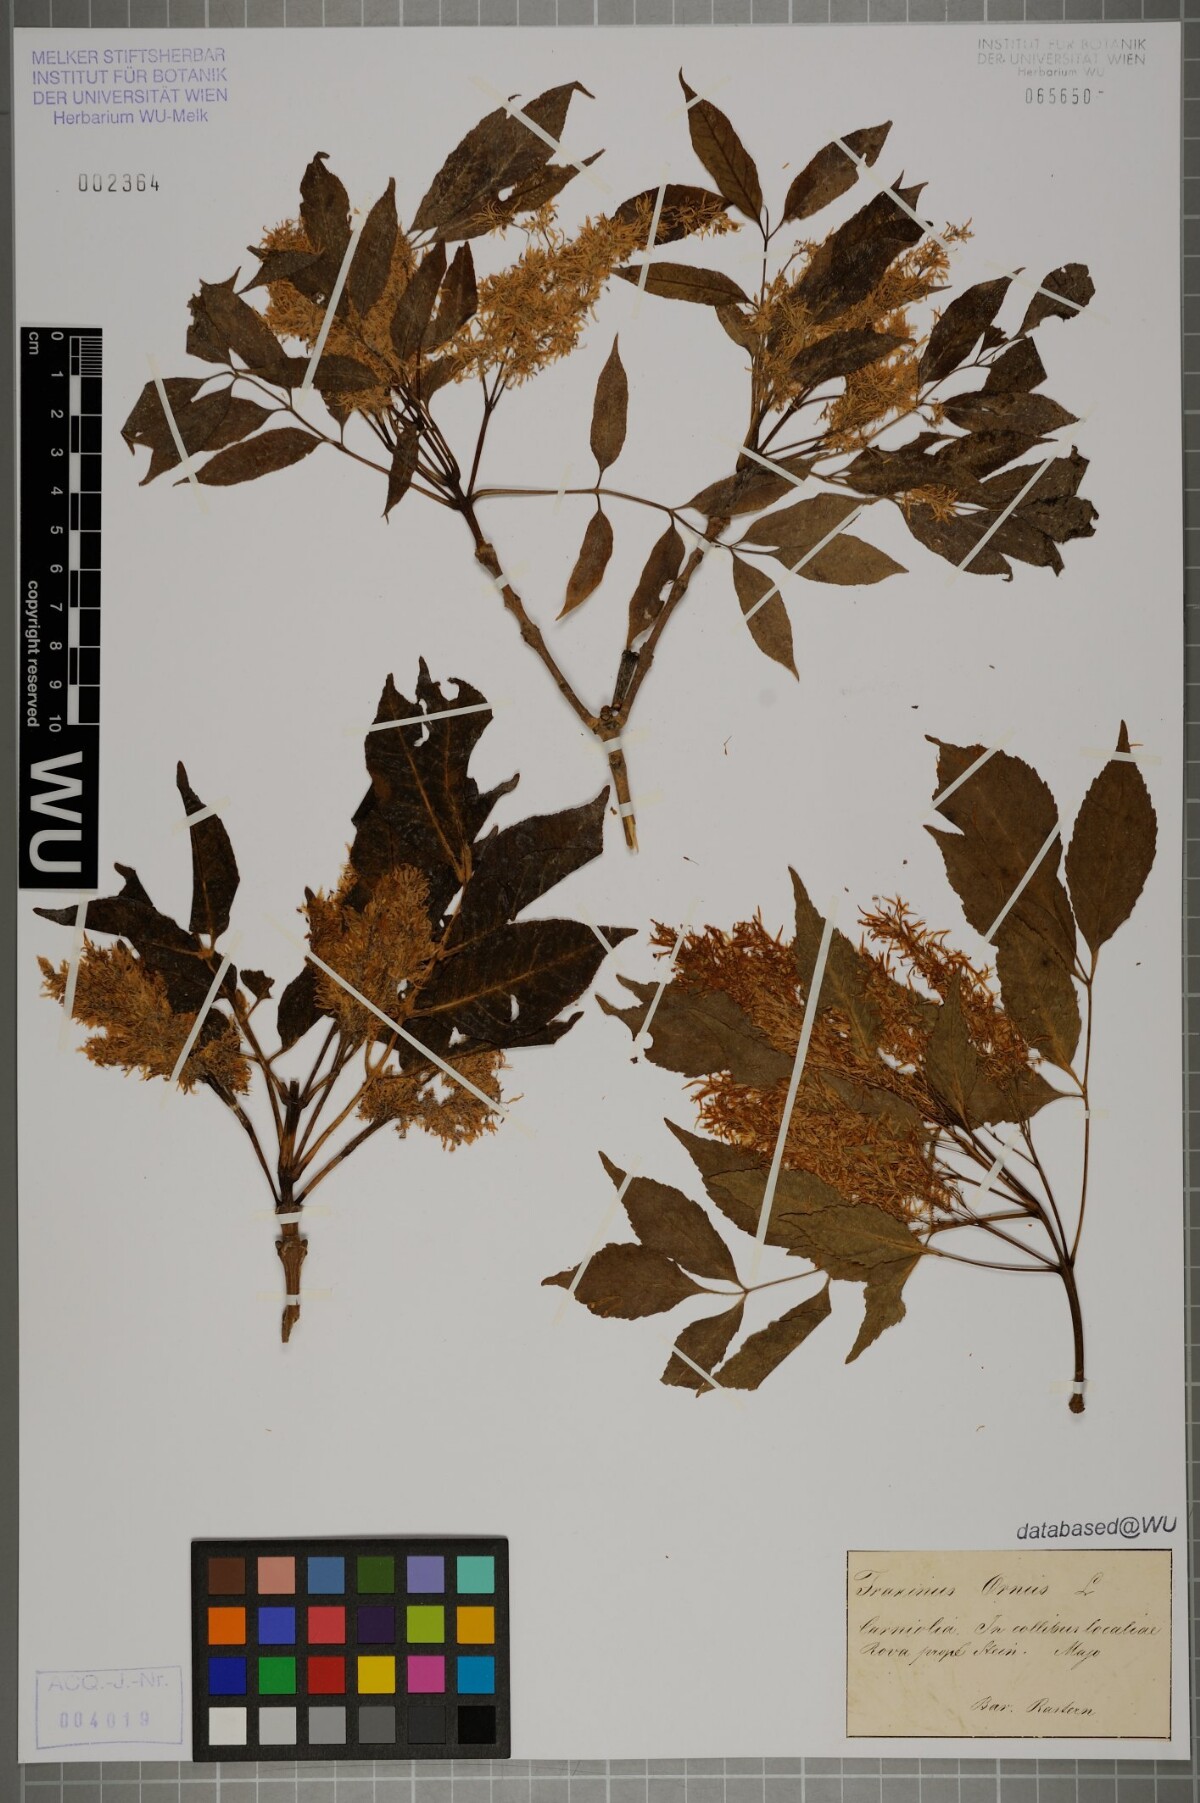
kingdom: Plantae
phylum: Tracheophyta
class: Magnoliopsida
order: Lamiales
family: Oleaceae
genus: Fraxinus
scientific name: Fraxinus ornus
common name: Manna ash
